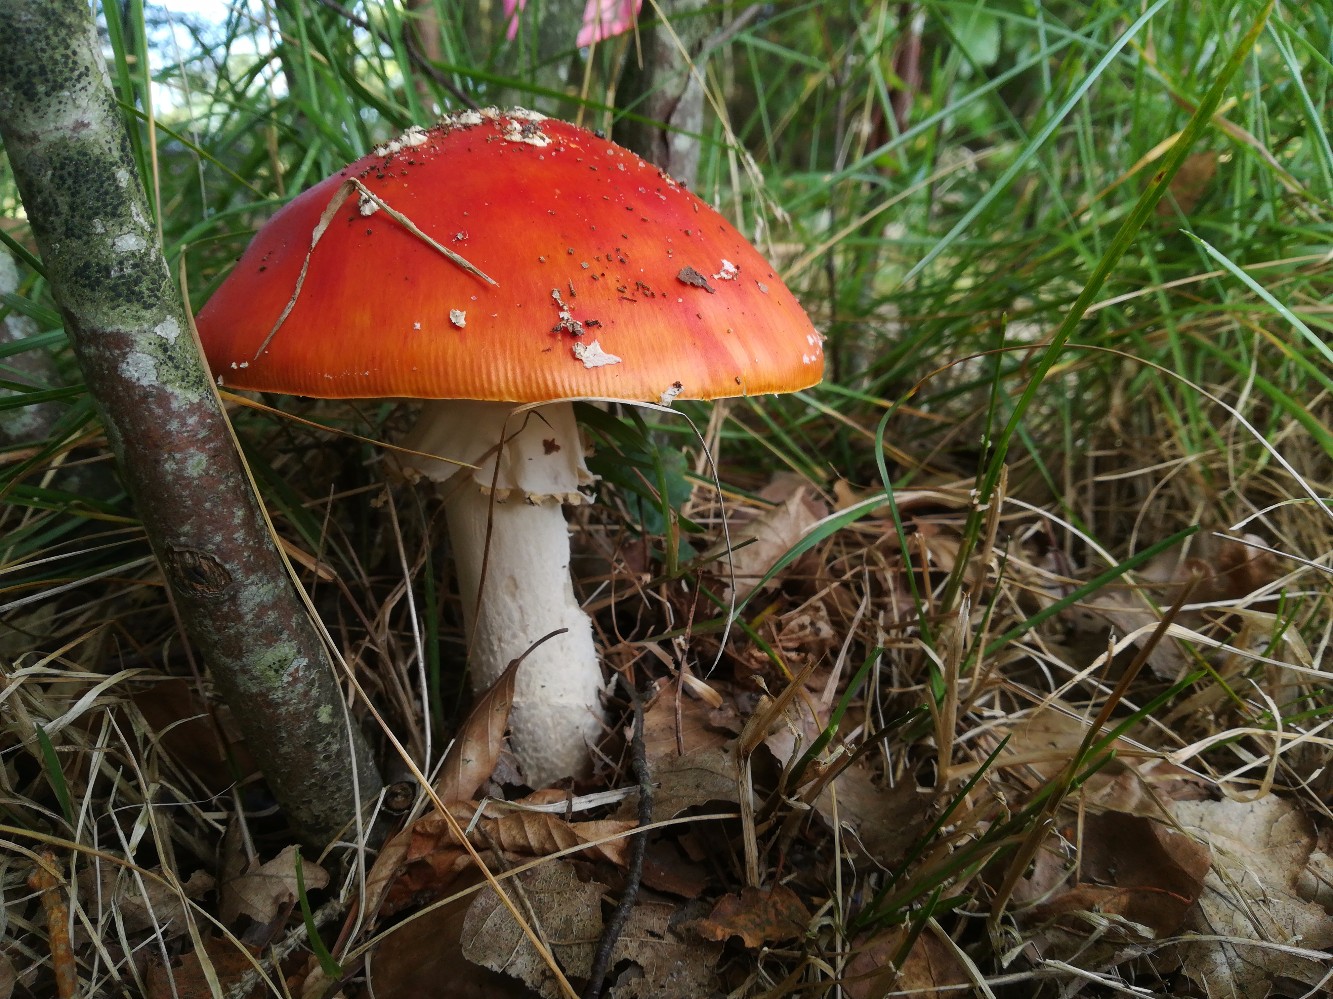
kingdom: Fungi
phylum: Basidiomycota
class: Agaricomycetes
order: Agaricales
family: Amanitaceae
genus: Amanita
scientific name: Amanita muscaria
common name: rød fluesvamp
